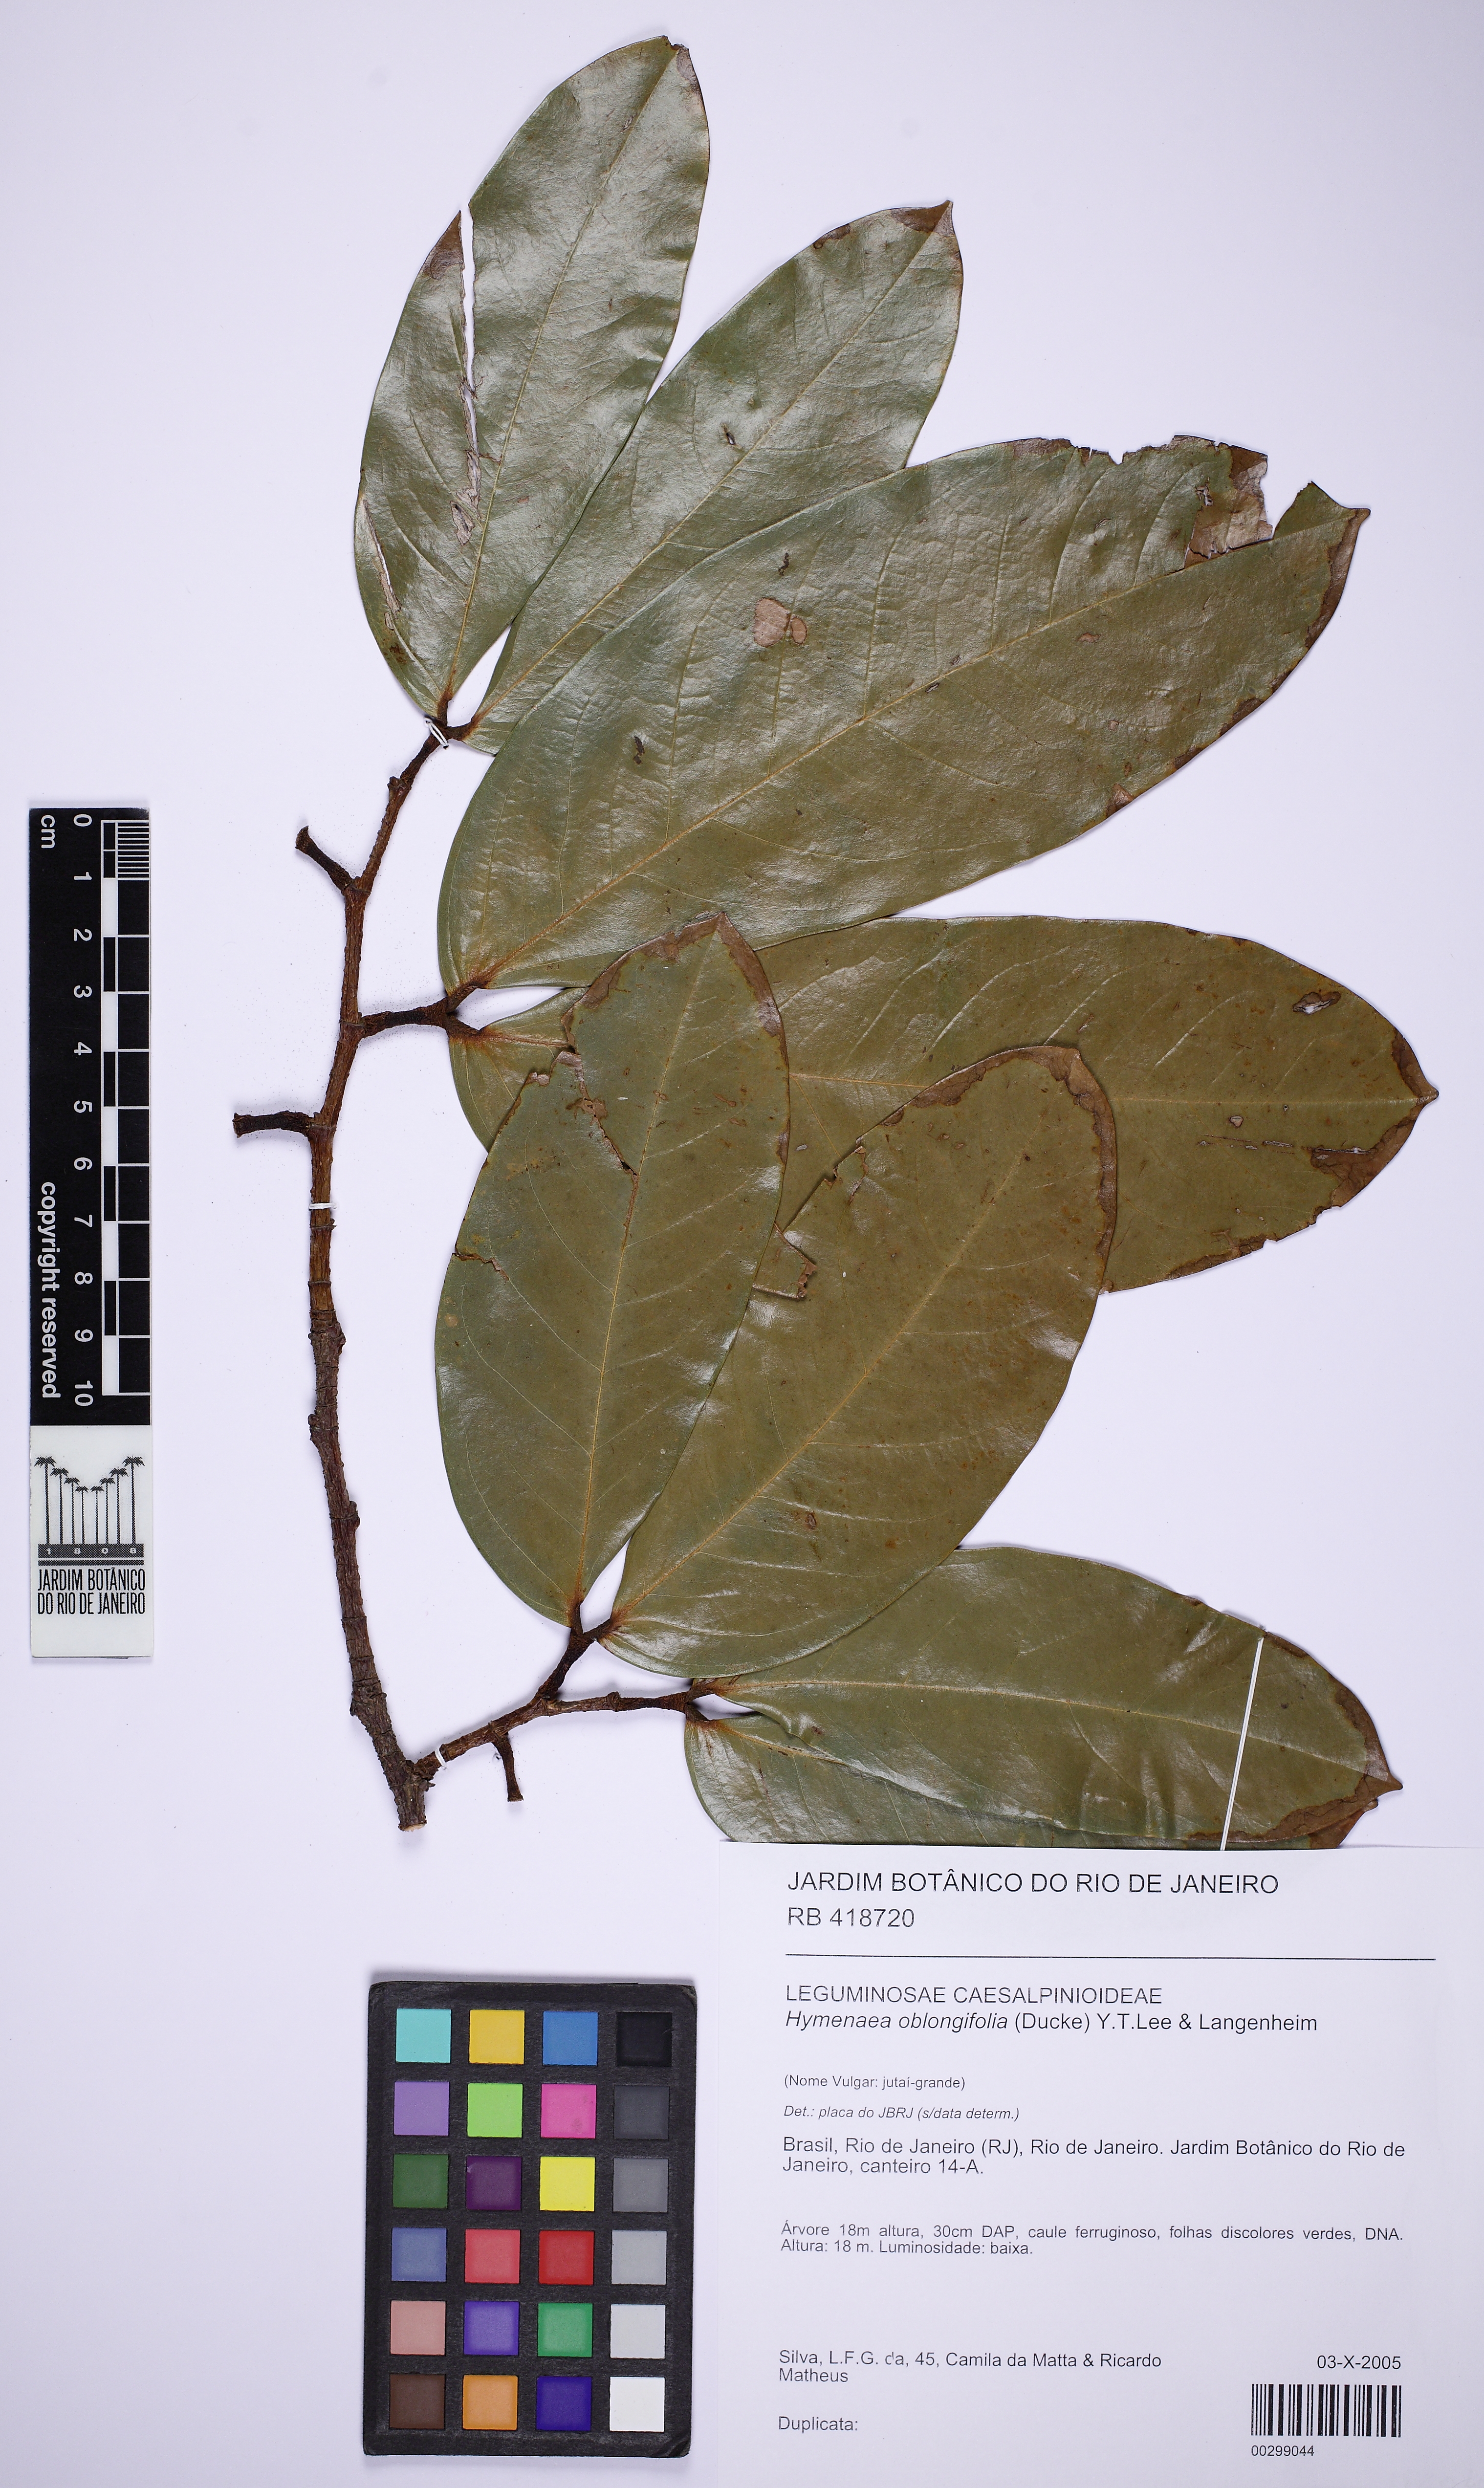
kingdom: Plantae
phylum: Tracheophyta
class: Magnoliopsida
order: Fabales
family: Fabaceae
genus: Hymenaea
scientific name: Hymenaea oblongifolia
